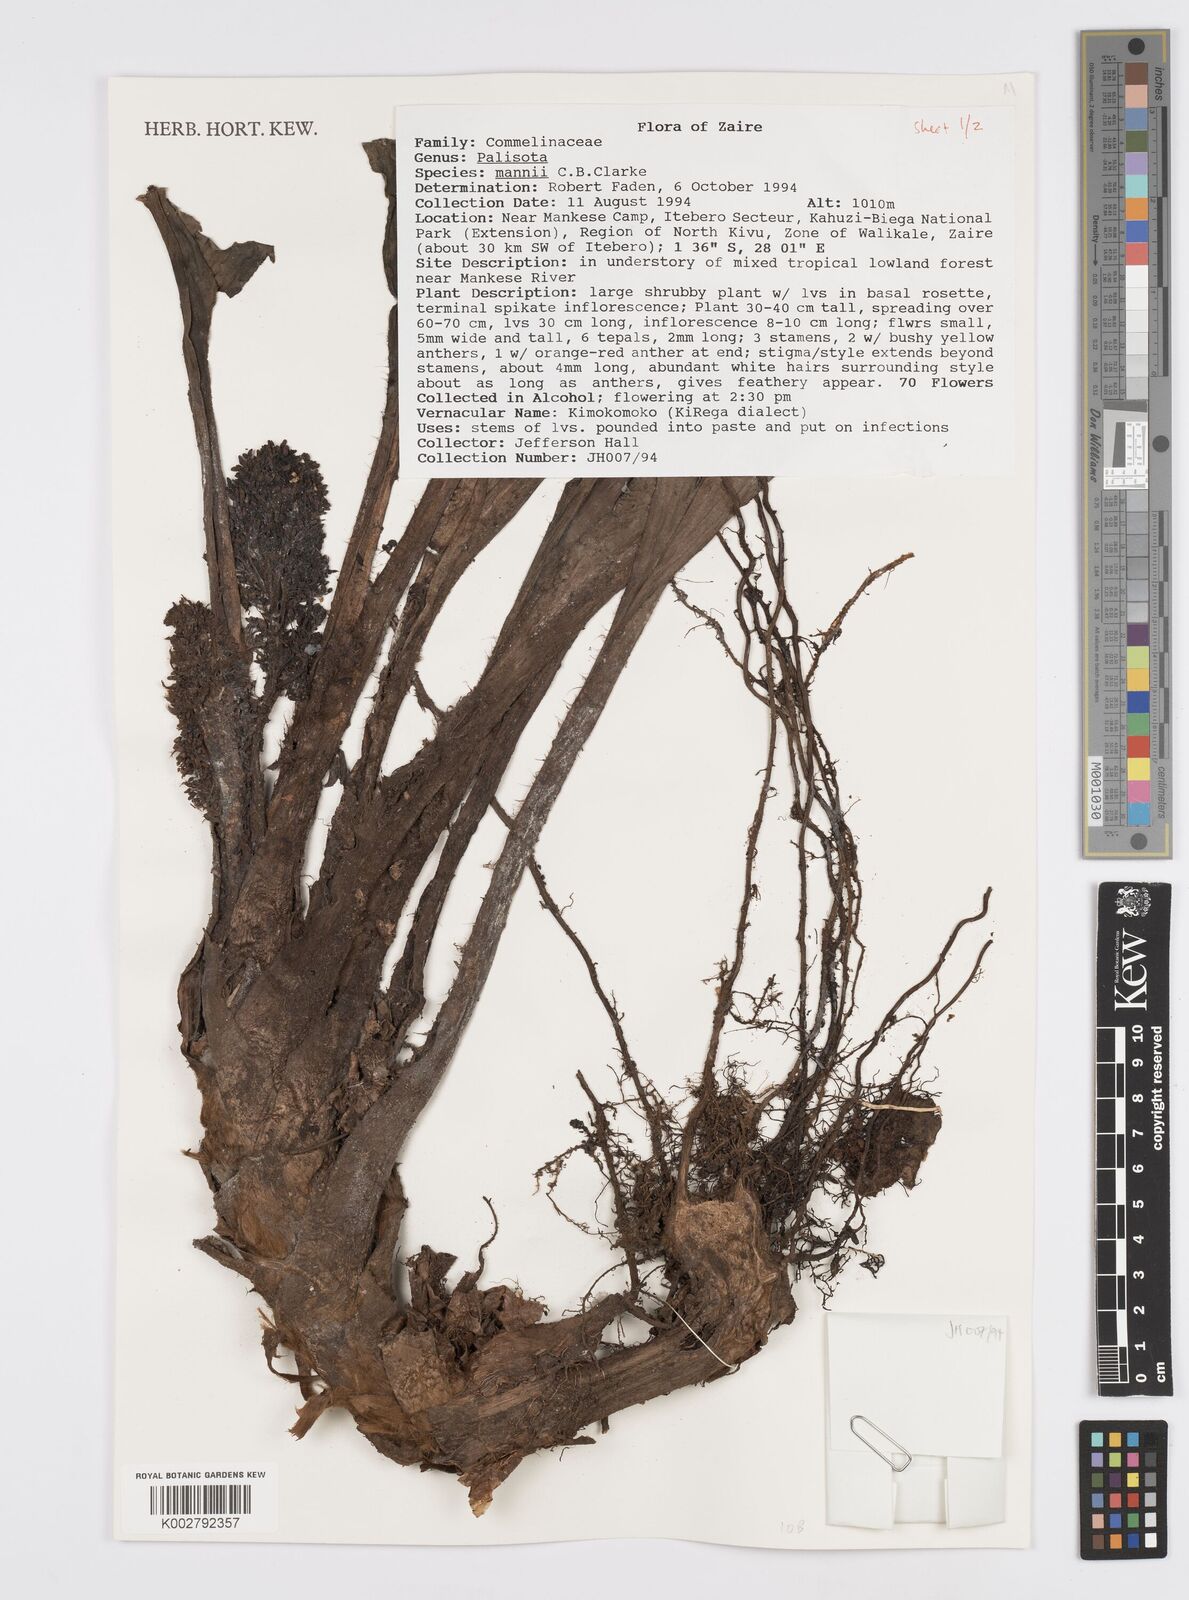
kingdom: Plantae
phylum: Tracheophyta
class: Liliopsida
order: Commelinales
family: Commelinaceae
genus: Palisota
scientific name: Palisota mannii
